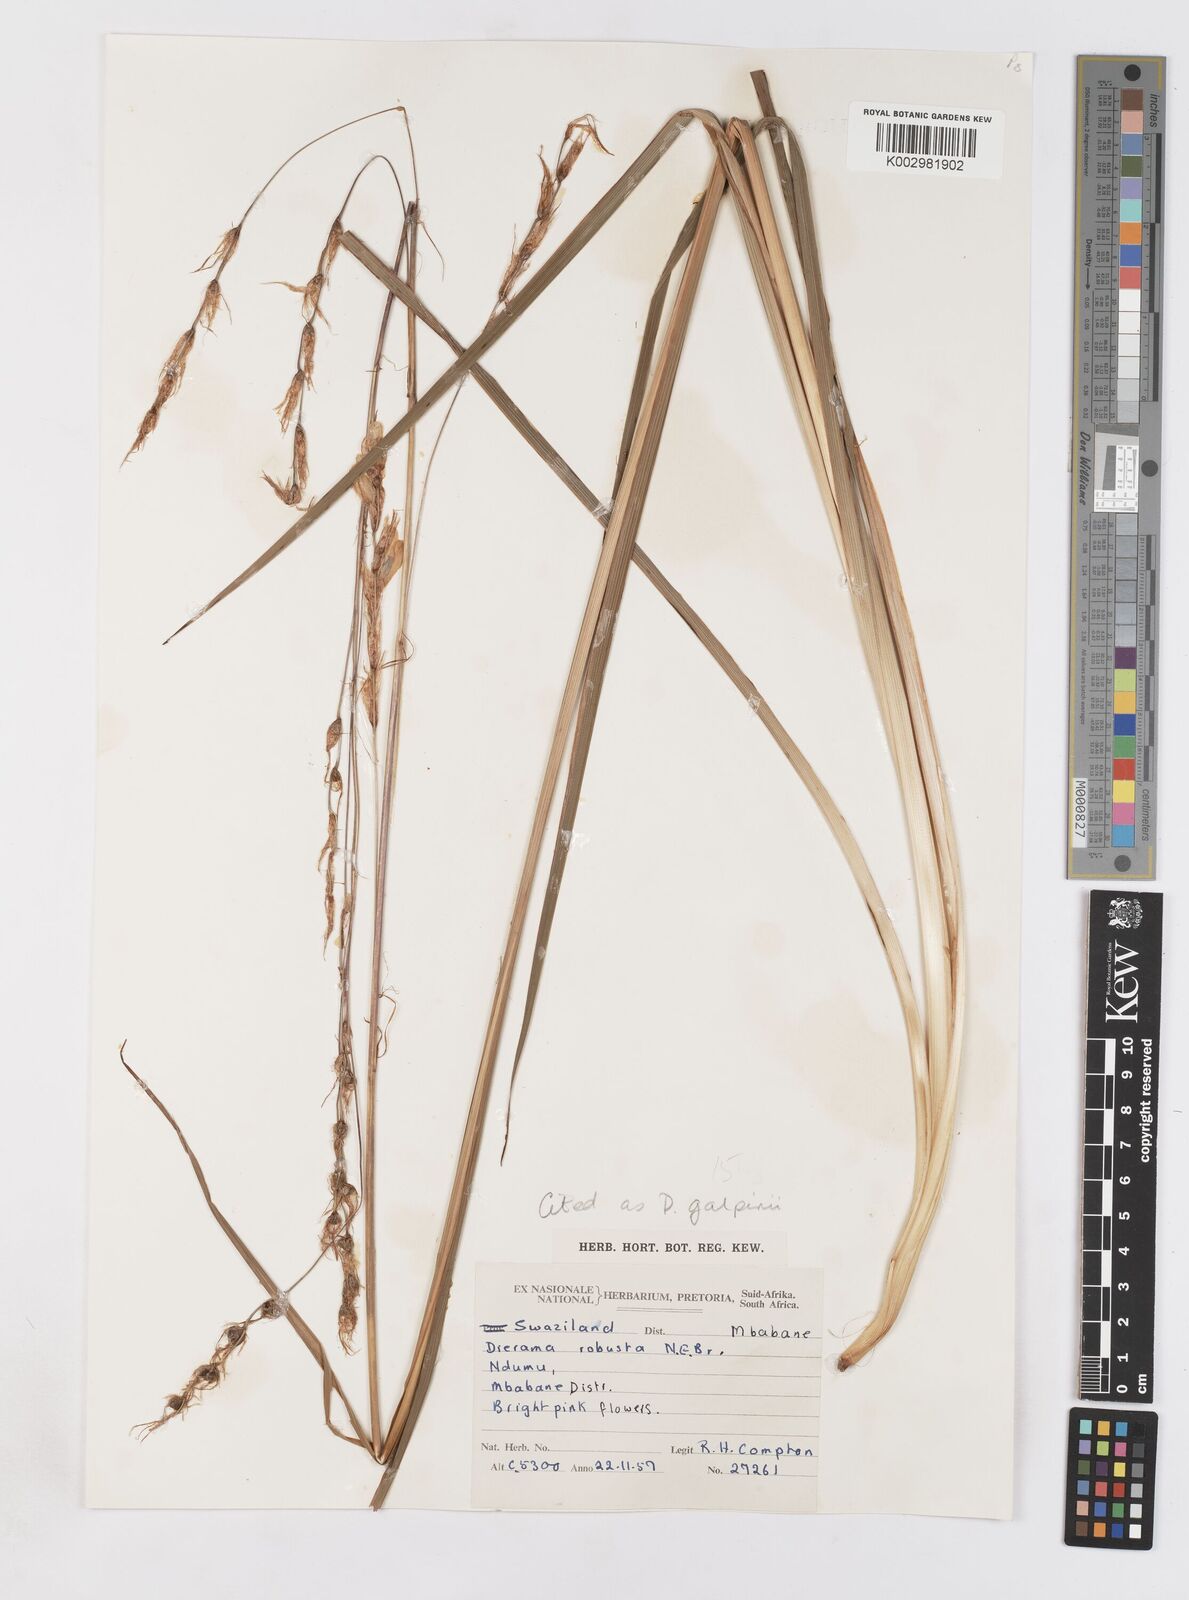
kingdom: Plantae
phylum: Tracheophyta
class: Liliopsida
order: Asparagales
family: Iridaceae
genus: Dierama
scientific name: Dierama galpinii
